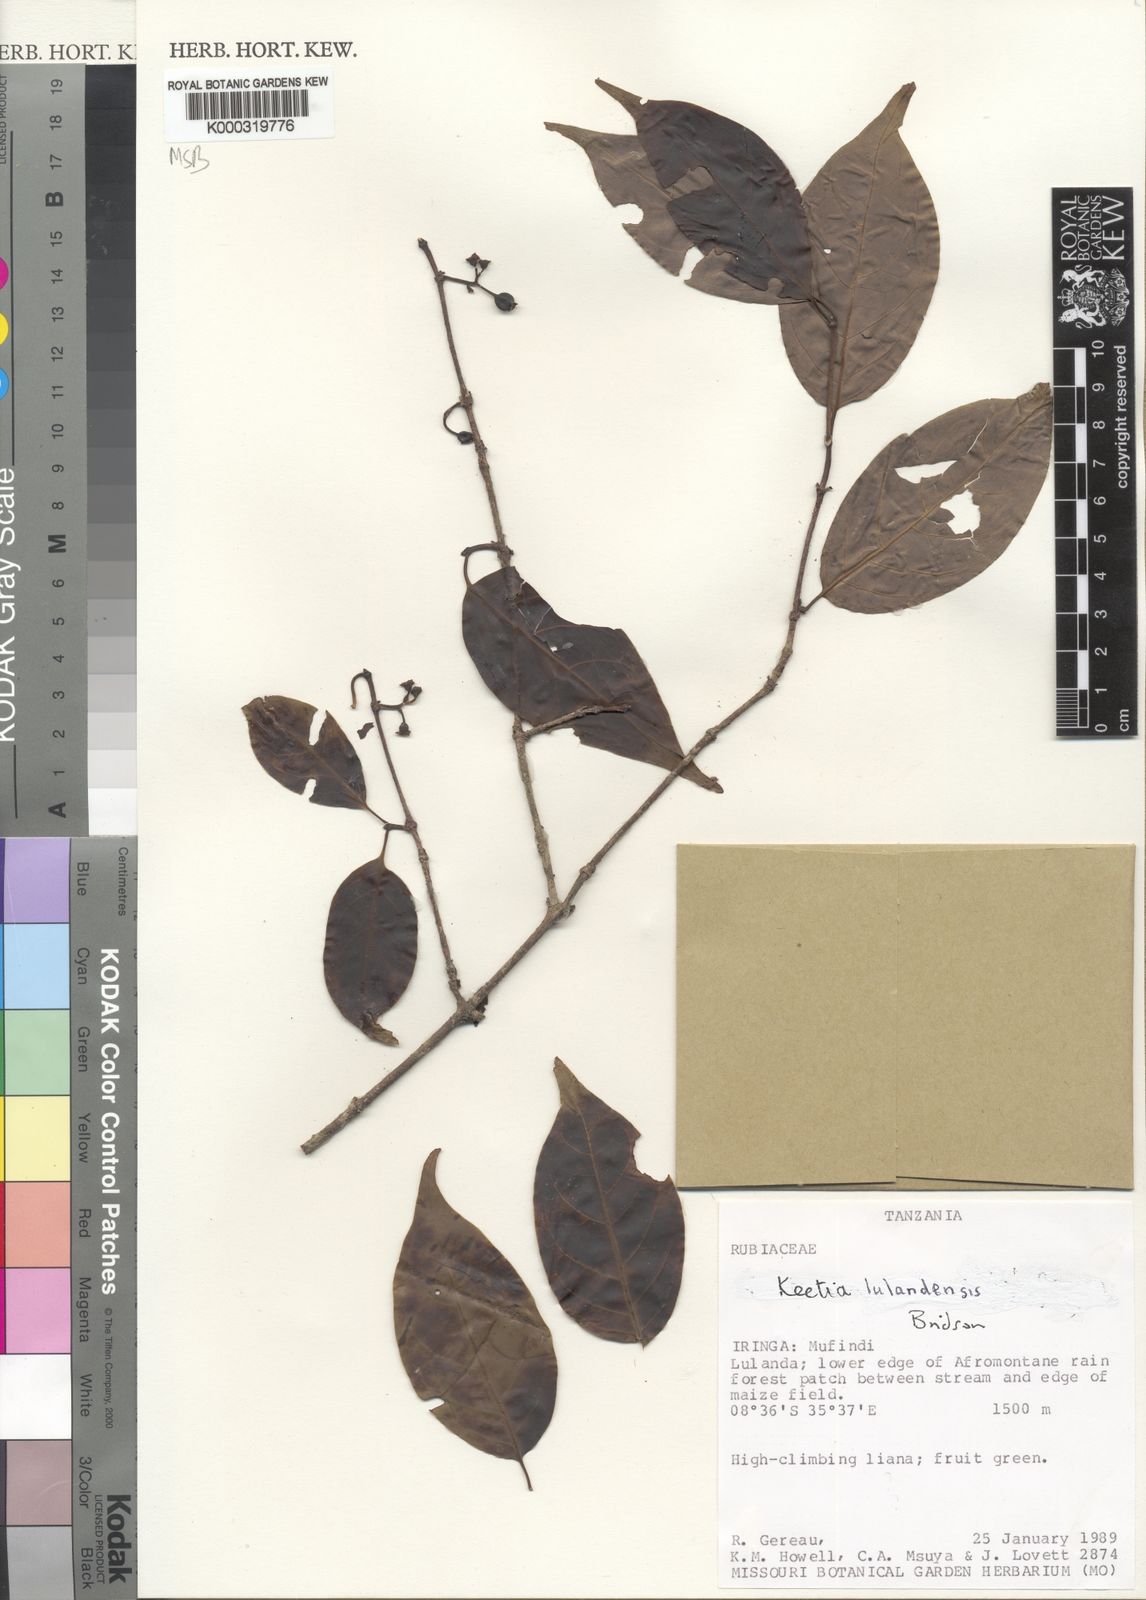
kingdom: Plantae
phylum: Tracheophyta
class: Magnoliopsida
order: Gentianales
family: Rubiaceae
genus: Keetia
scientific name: Keetia lulandensis
